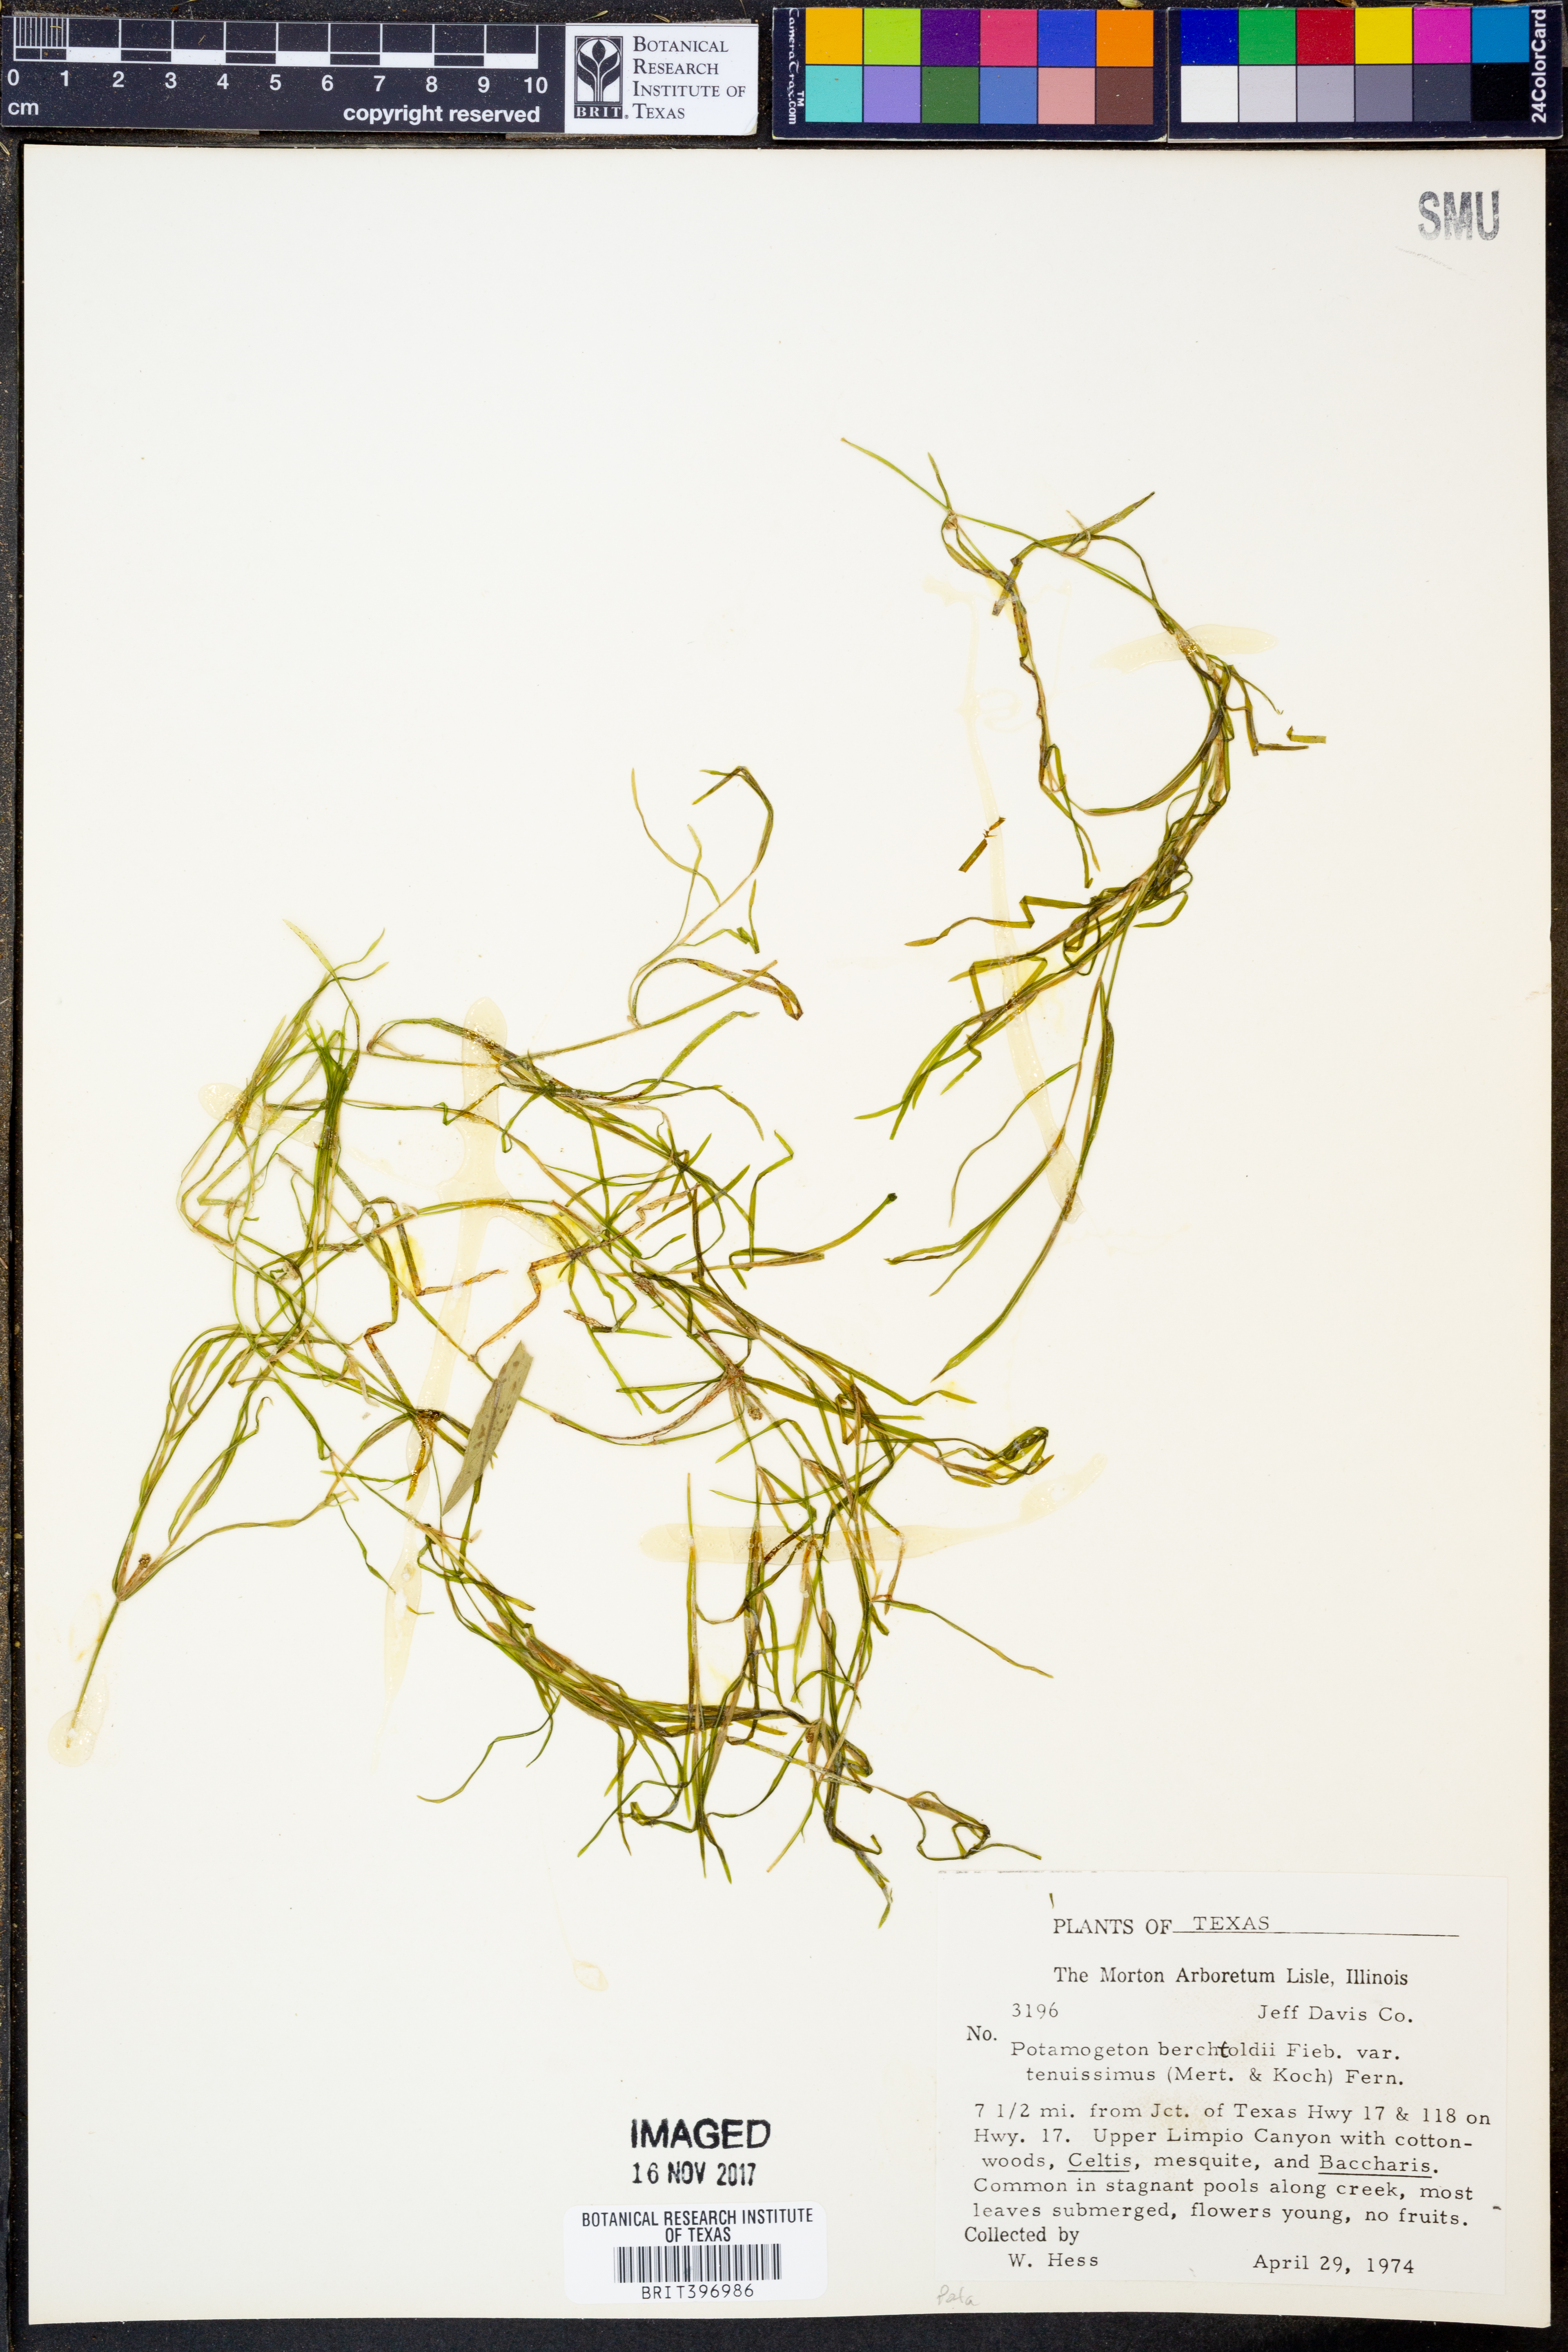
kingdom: Plantae
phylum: Tracheophyta
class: Liliopsida
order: Alismatales
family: Potamogetonaceae
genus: Potamogeton
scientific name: Potamogeton berchtoldii
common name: Small pondweed
